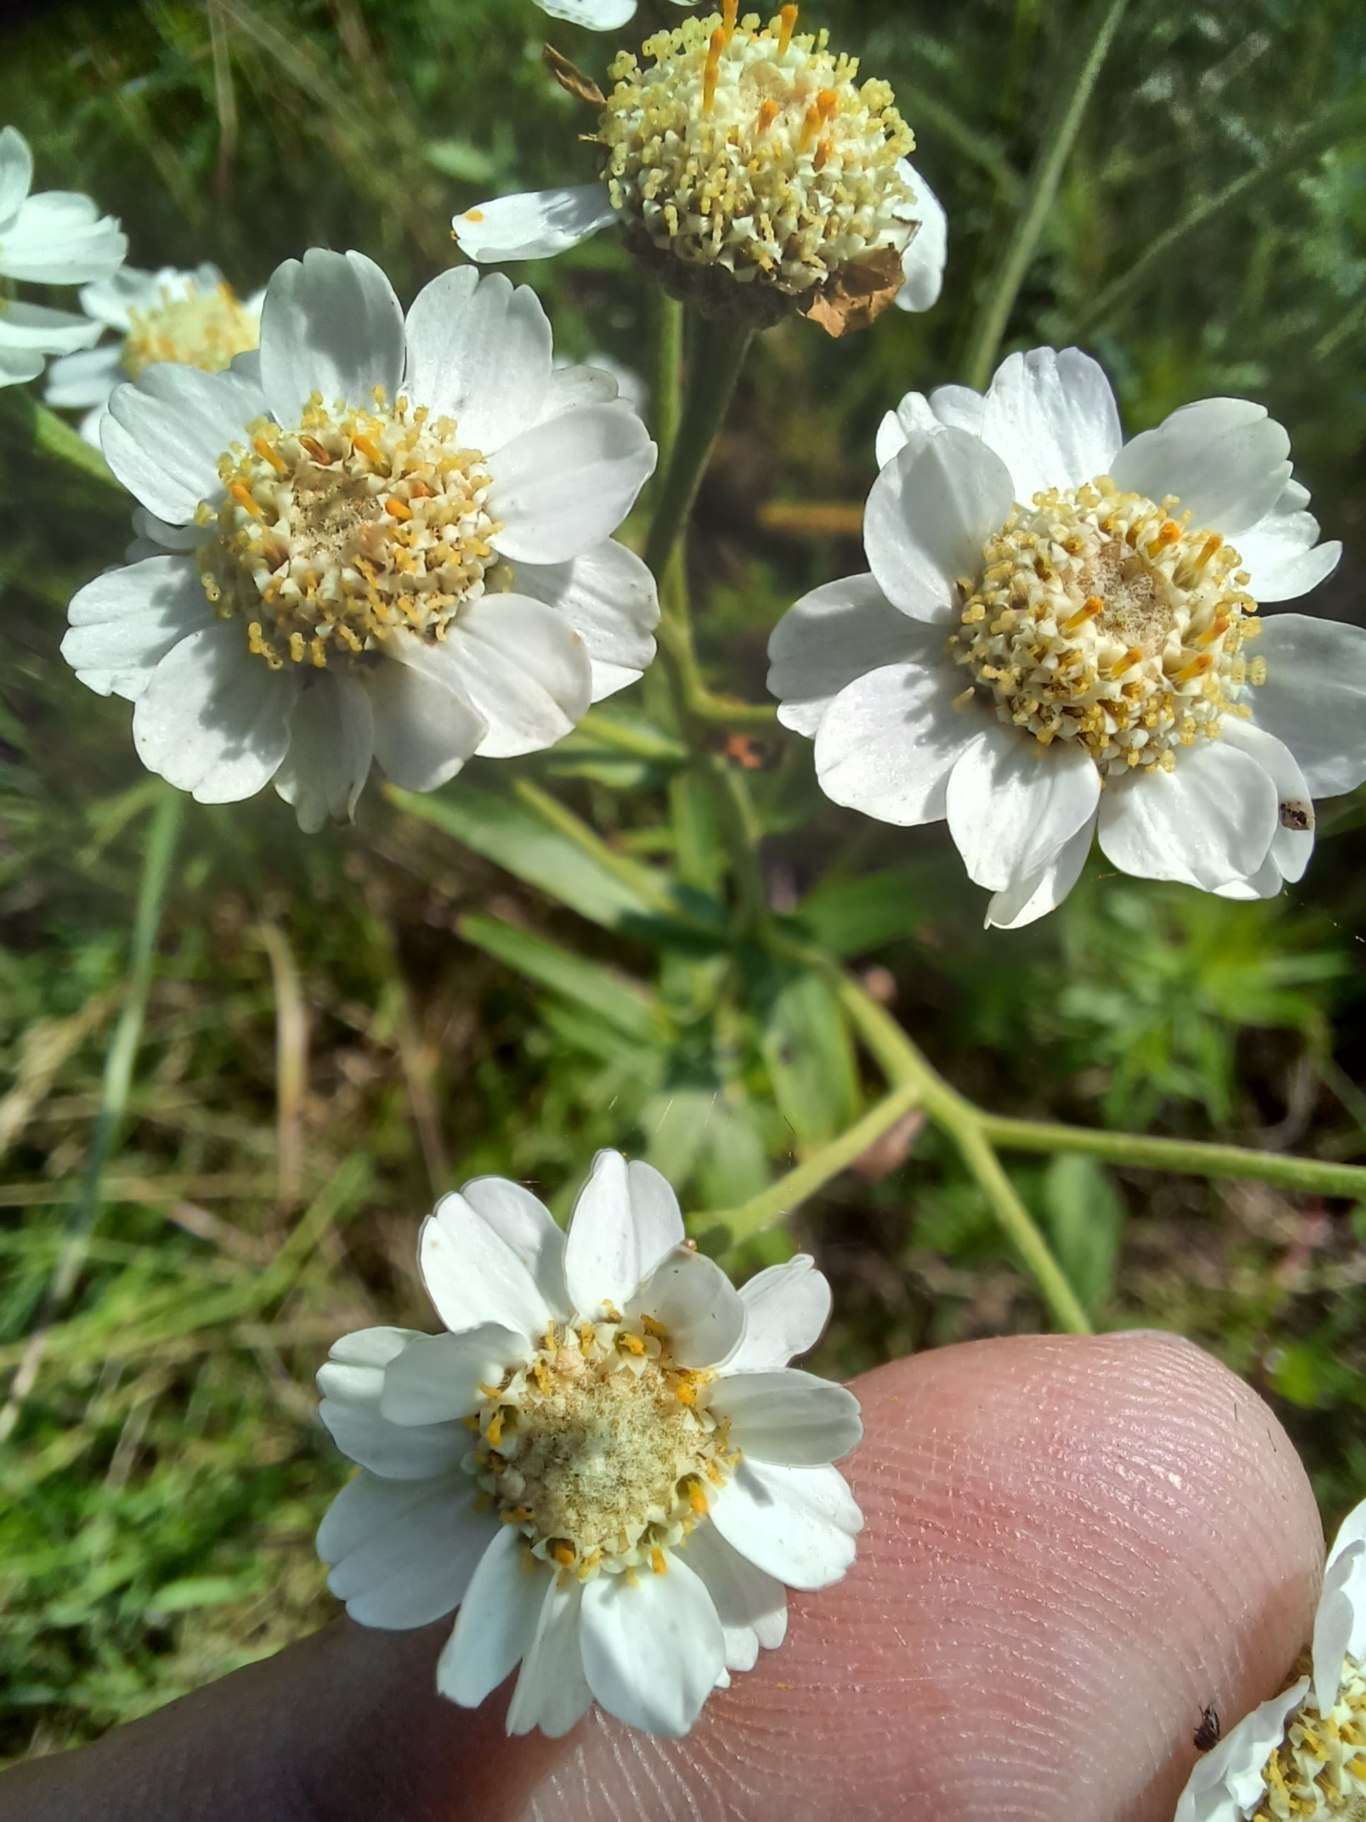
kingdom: Plantae
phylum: Tracheophyta
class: Magnoliopsida
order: Asterales
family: Asteraceae
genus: Achillea
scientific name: Achillea ptarmica
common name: Nyse-røllike
